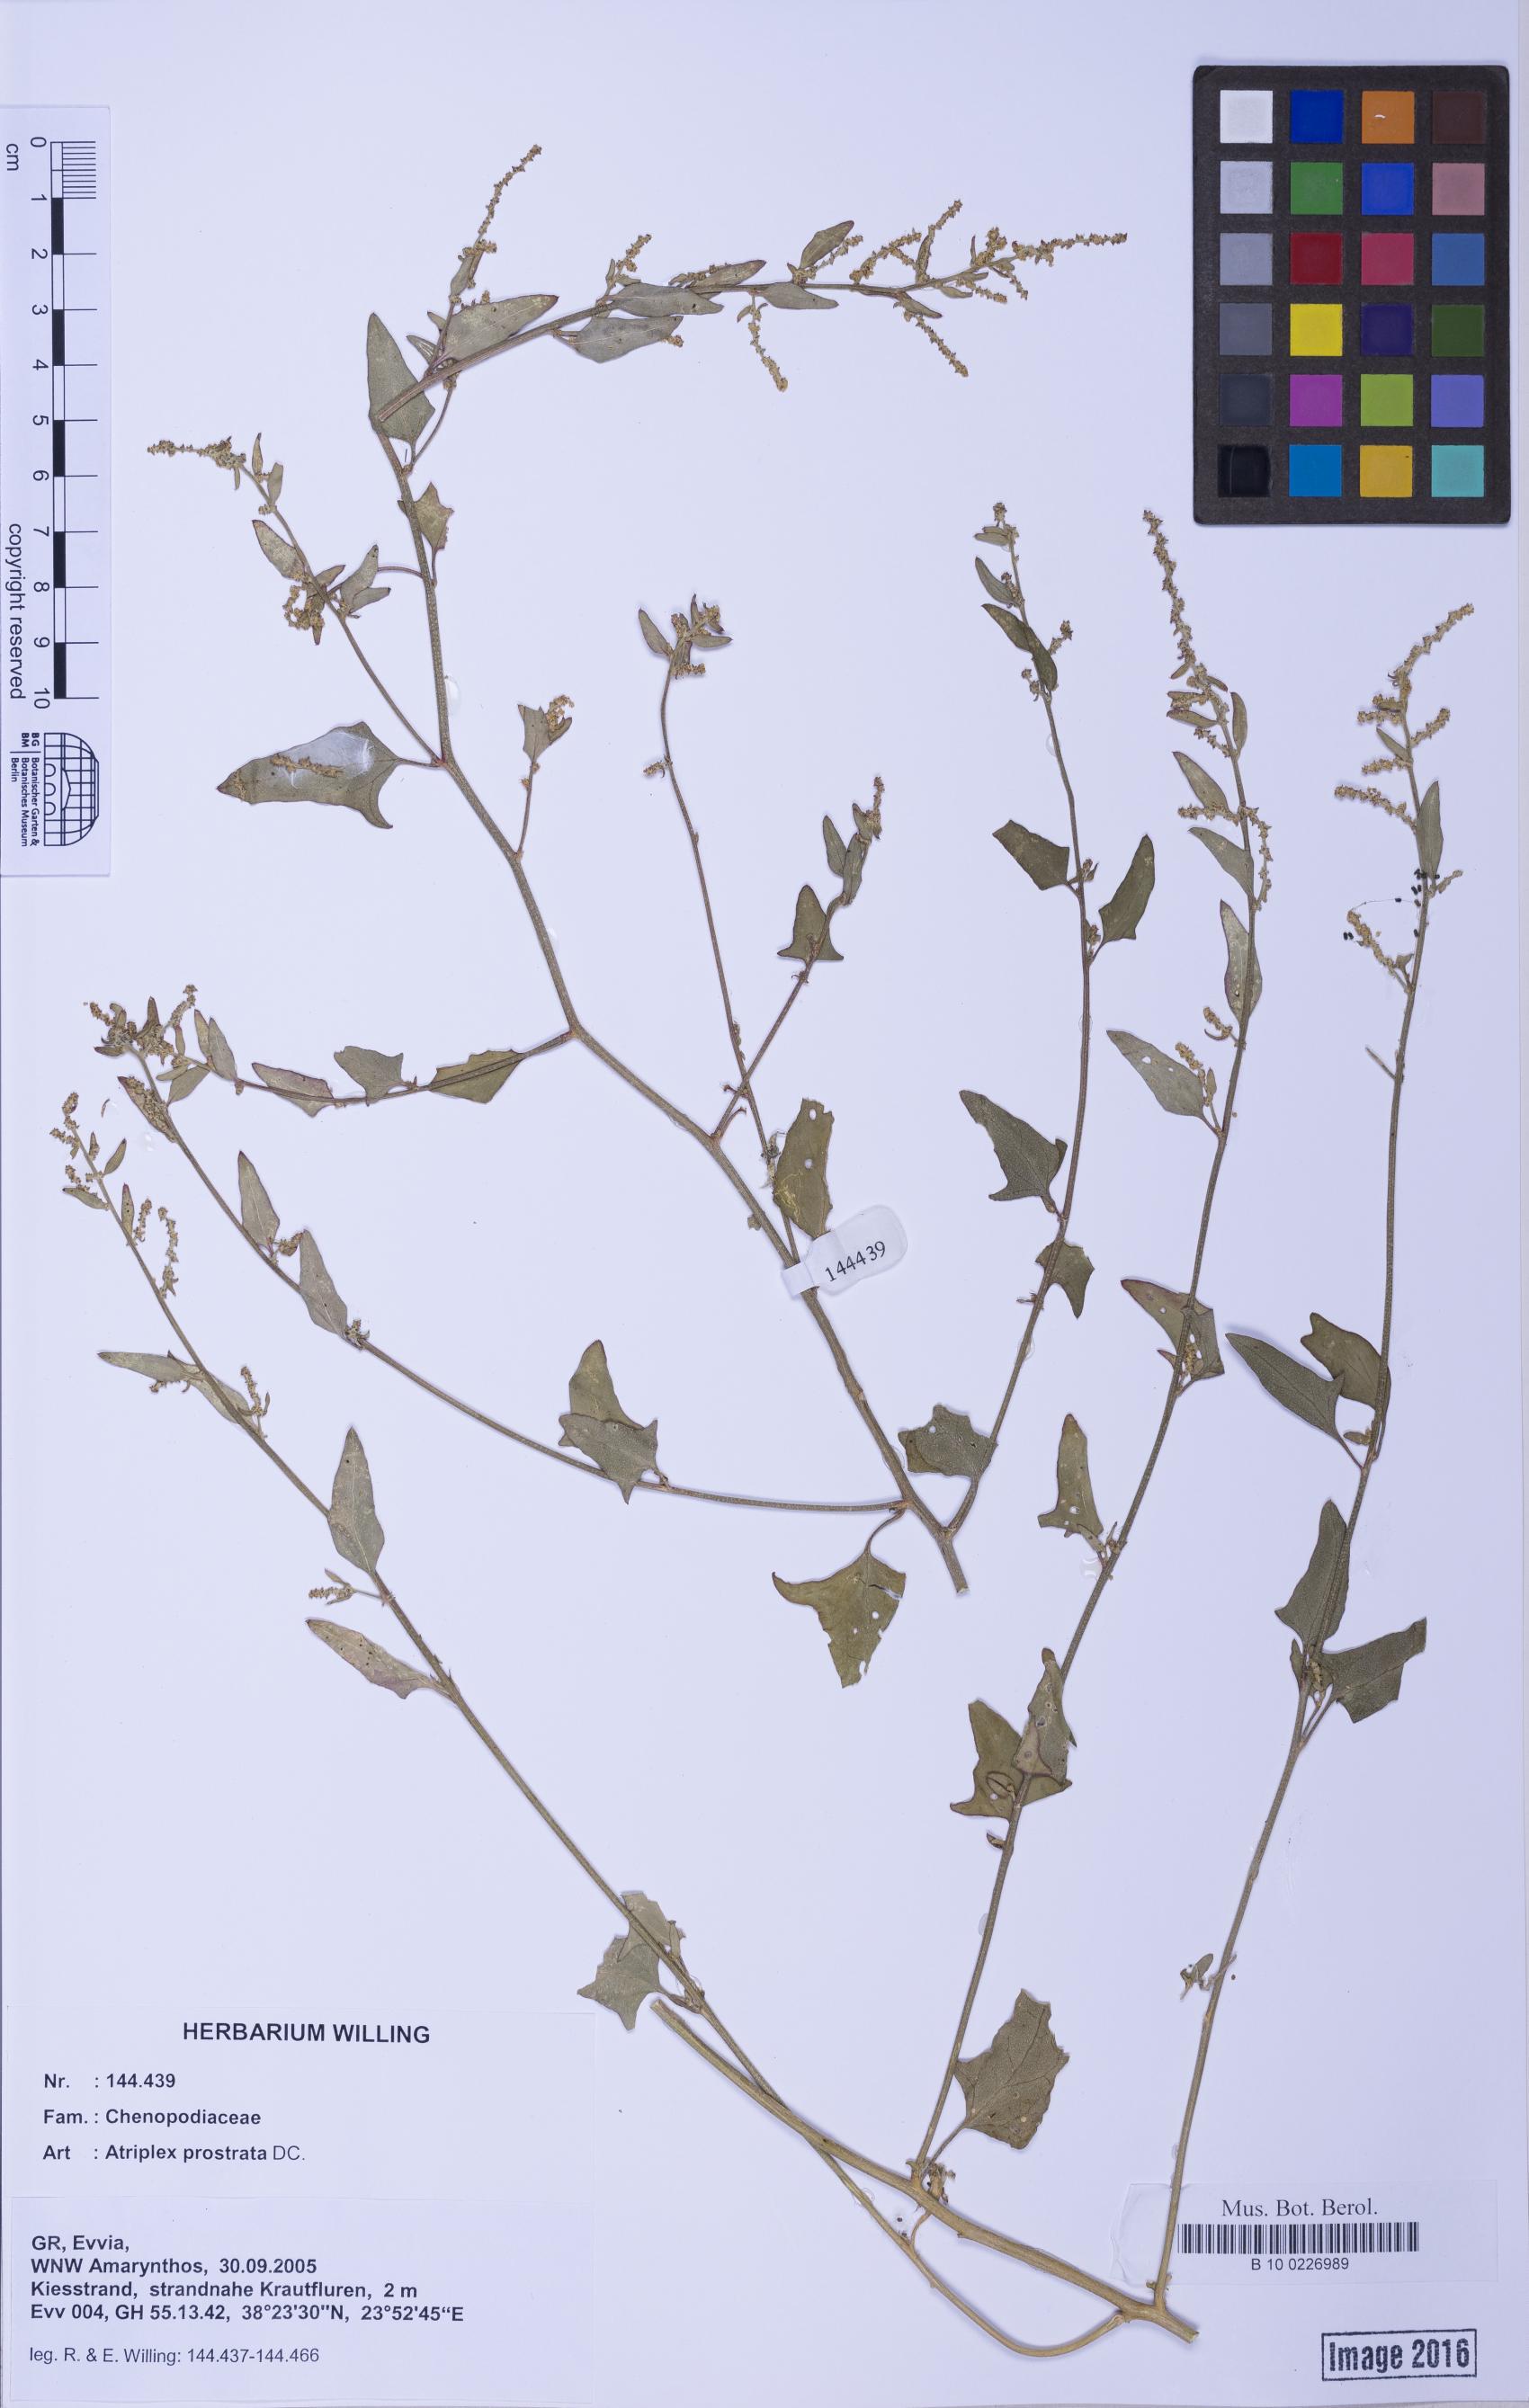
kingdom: Plantae
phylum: Tracheophyta
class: Magnoliopsida
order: Caryophyllales
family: Amaranthaceae
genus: Atriplex
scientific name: Atriplex prostrata
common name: Spear-leaved orache
